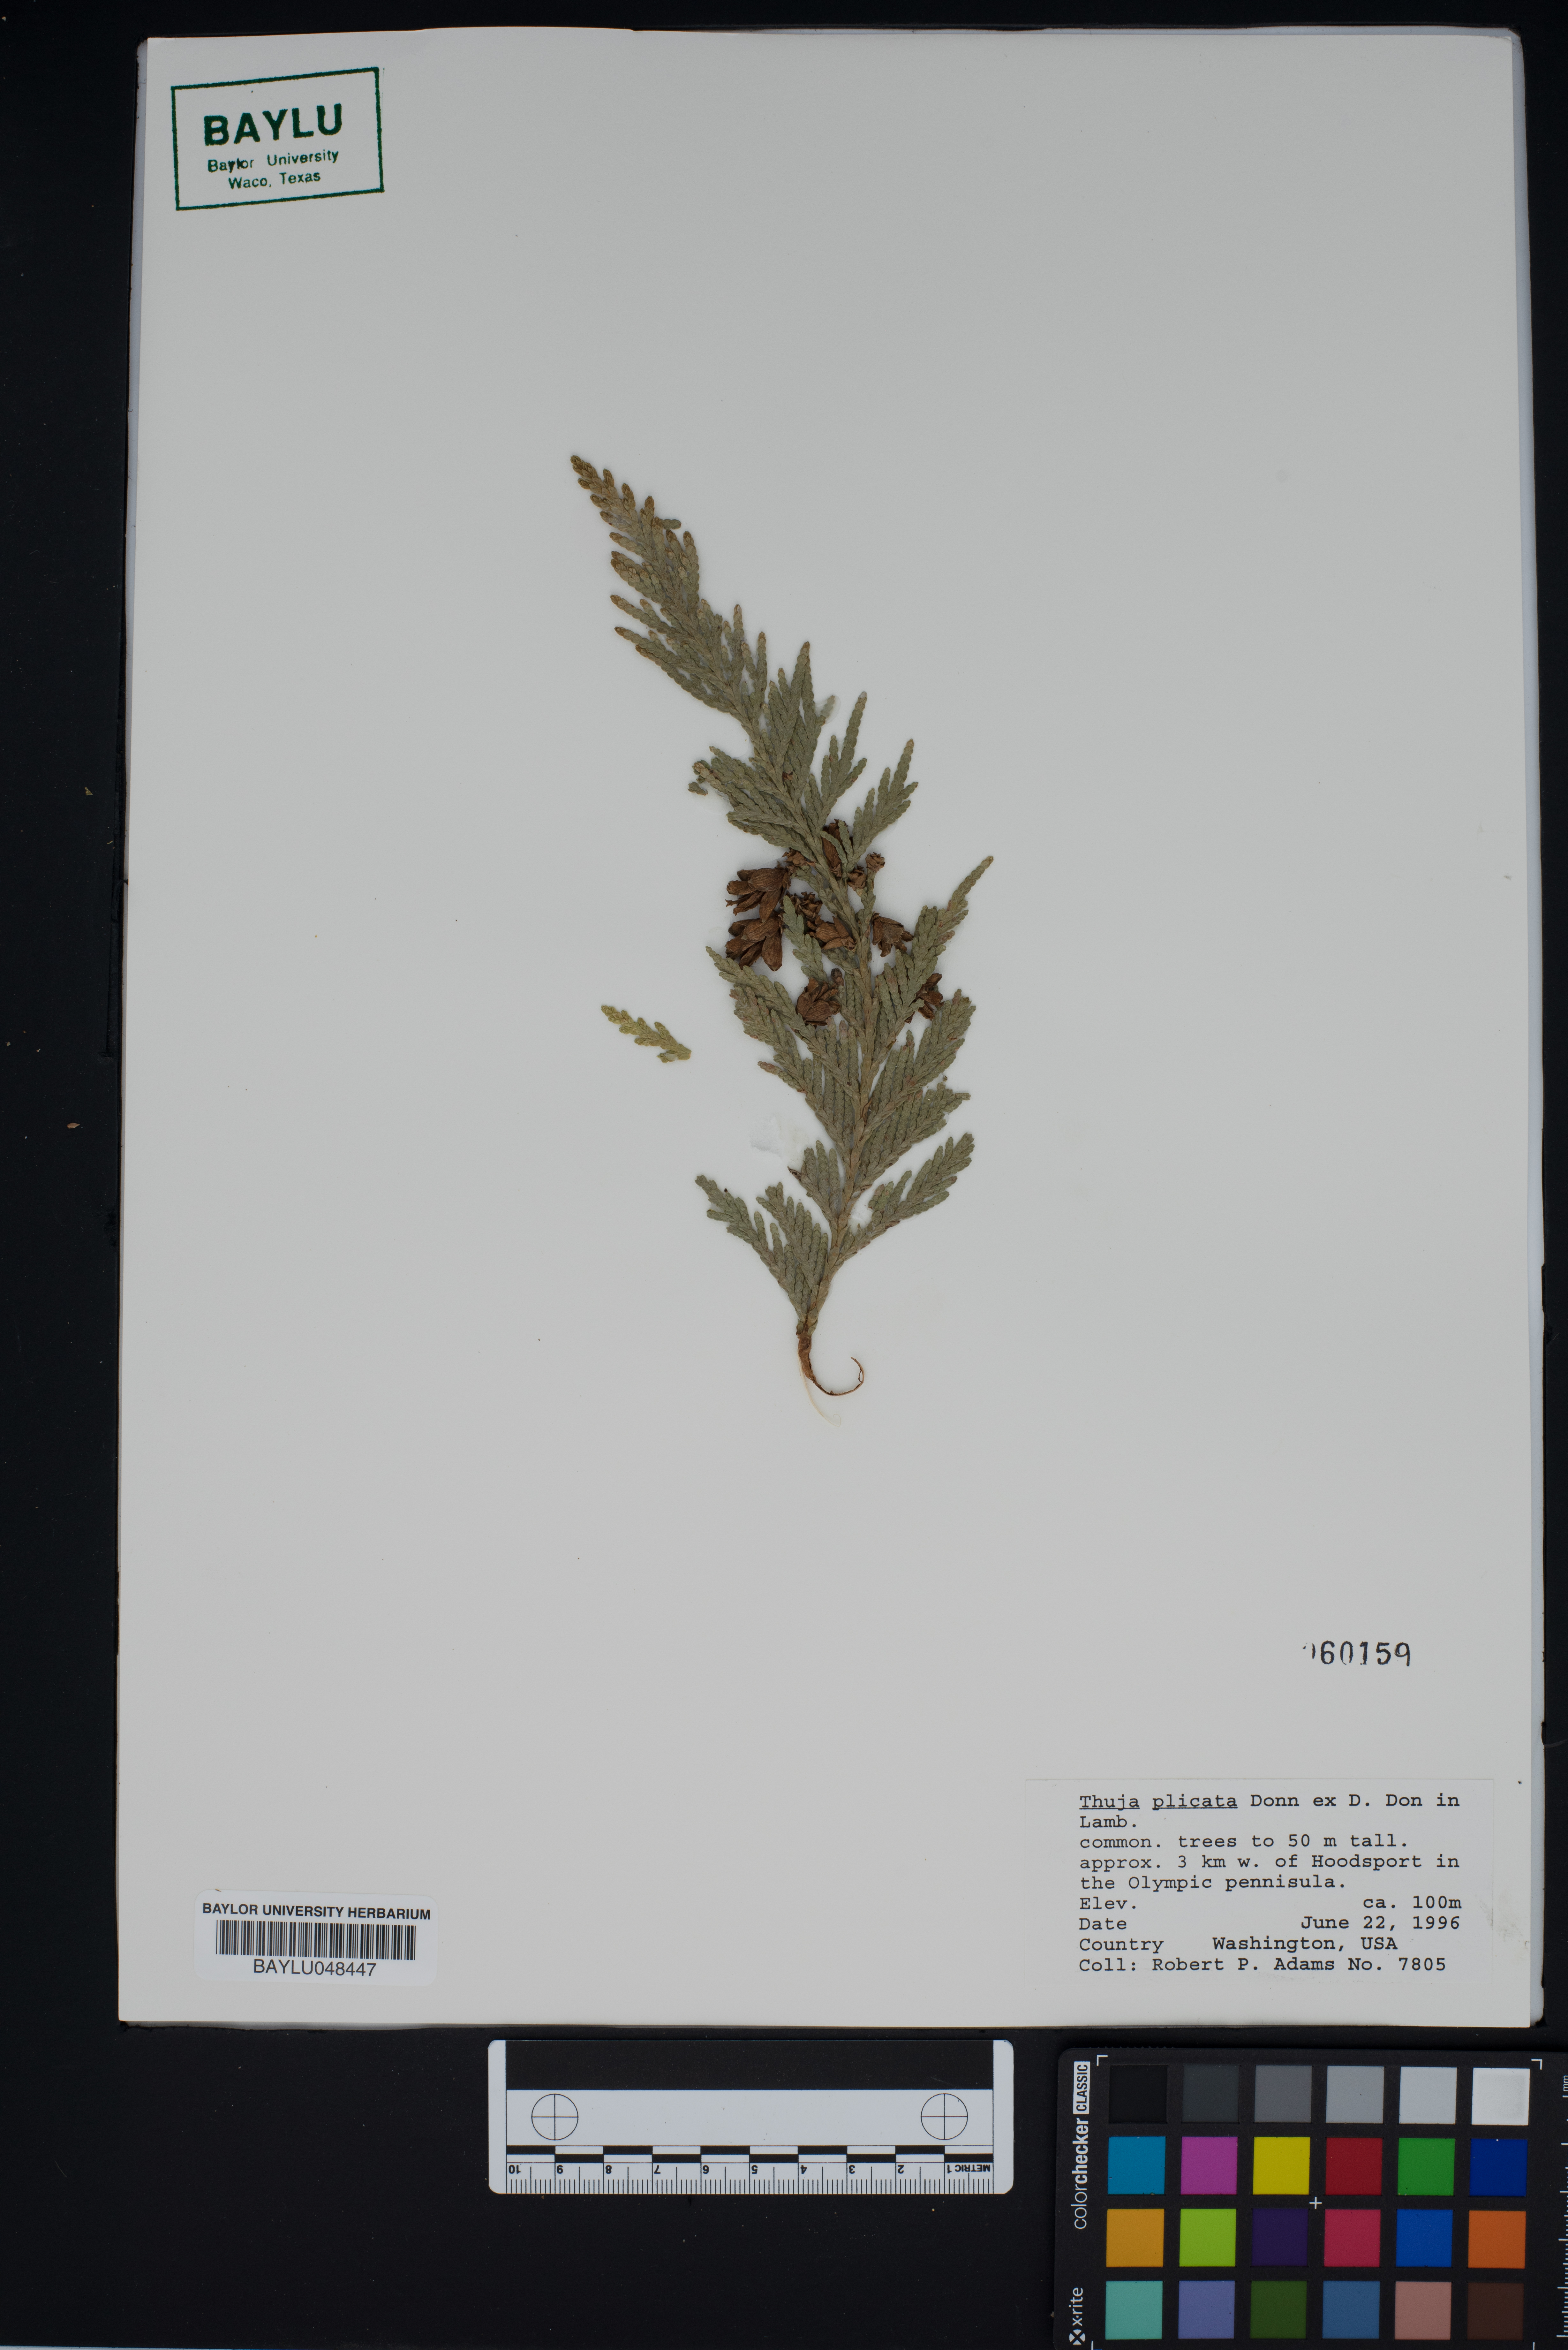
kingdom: Plantae
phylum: Tracheophyta
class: Pinopsida
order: Pinales
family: Cupressaceae
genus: Thuja
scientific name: Thuja plicata
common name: Western red-cedar
